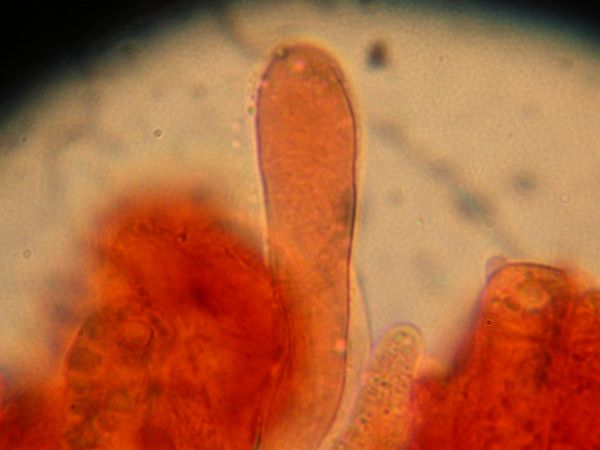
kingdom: Fungi
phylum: Basidiomycota
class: Agaricomycetes
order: Polyporales
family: Hyphodermataceae
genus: Hyphoderma
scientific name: Hyphoderma occidentale
